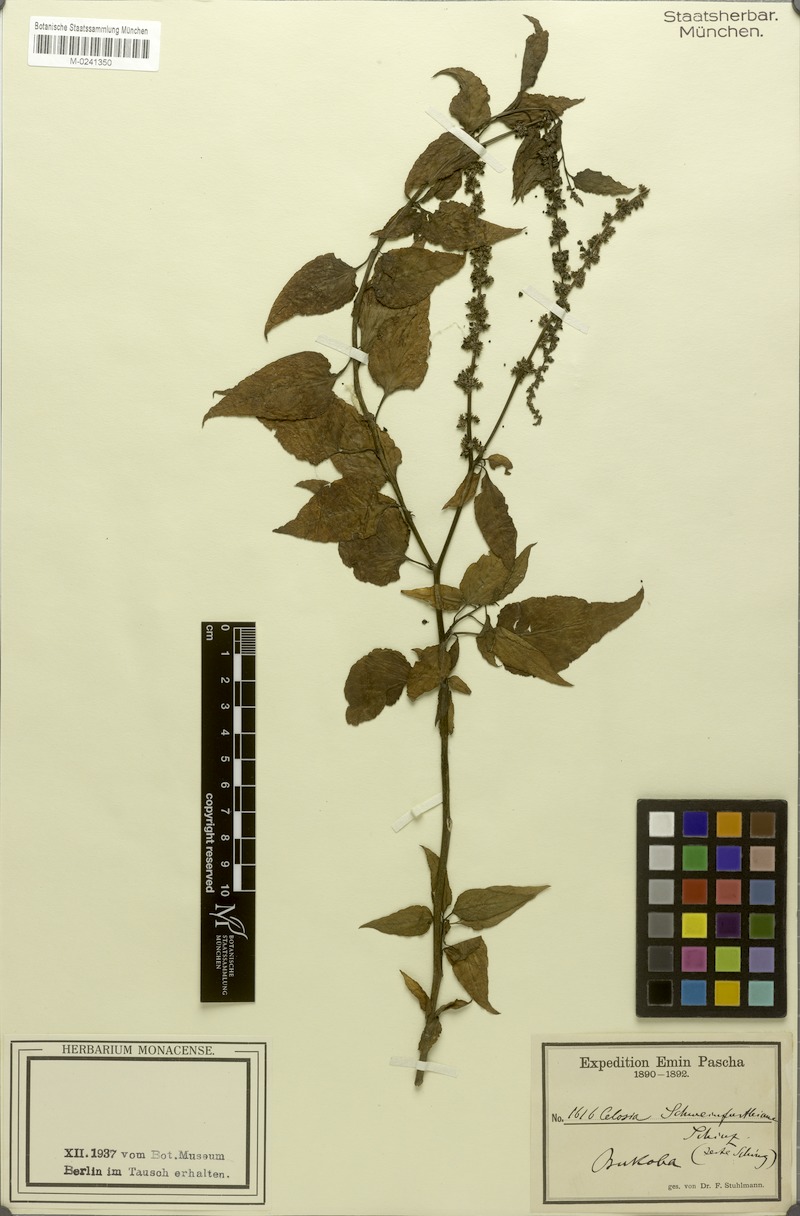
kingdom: Plantae
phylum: Tracheophyta
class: Magnoliopsida
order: Caryophyllales
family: Amaranthaceae
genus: Celosia
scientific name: Celosia schweinfurthiana
